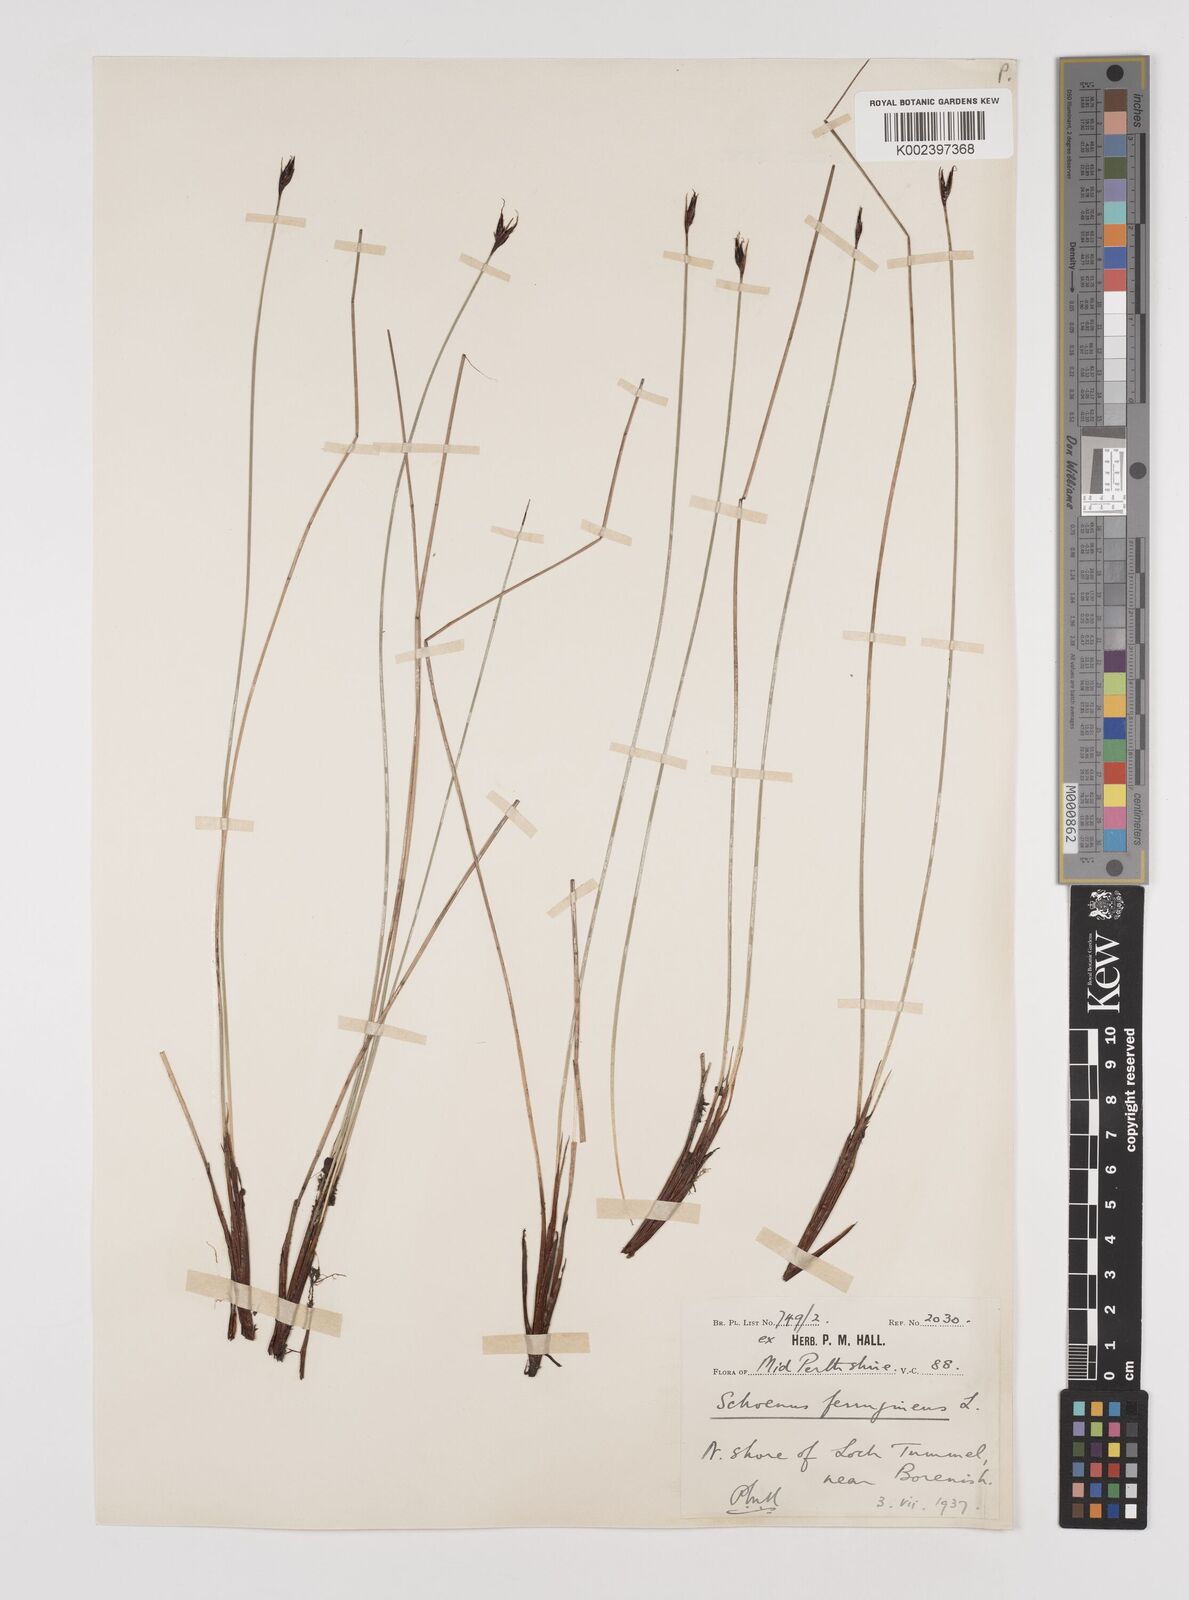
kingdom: Plantae
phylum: Tracheophyta
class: Liliopsida
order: Poales
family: Cyperaceae
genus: Schoenus
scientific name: Schoenus ferrugineus
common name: Brown bog-rush
